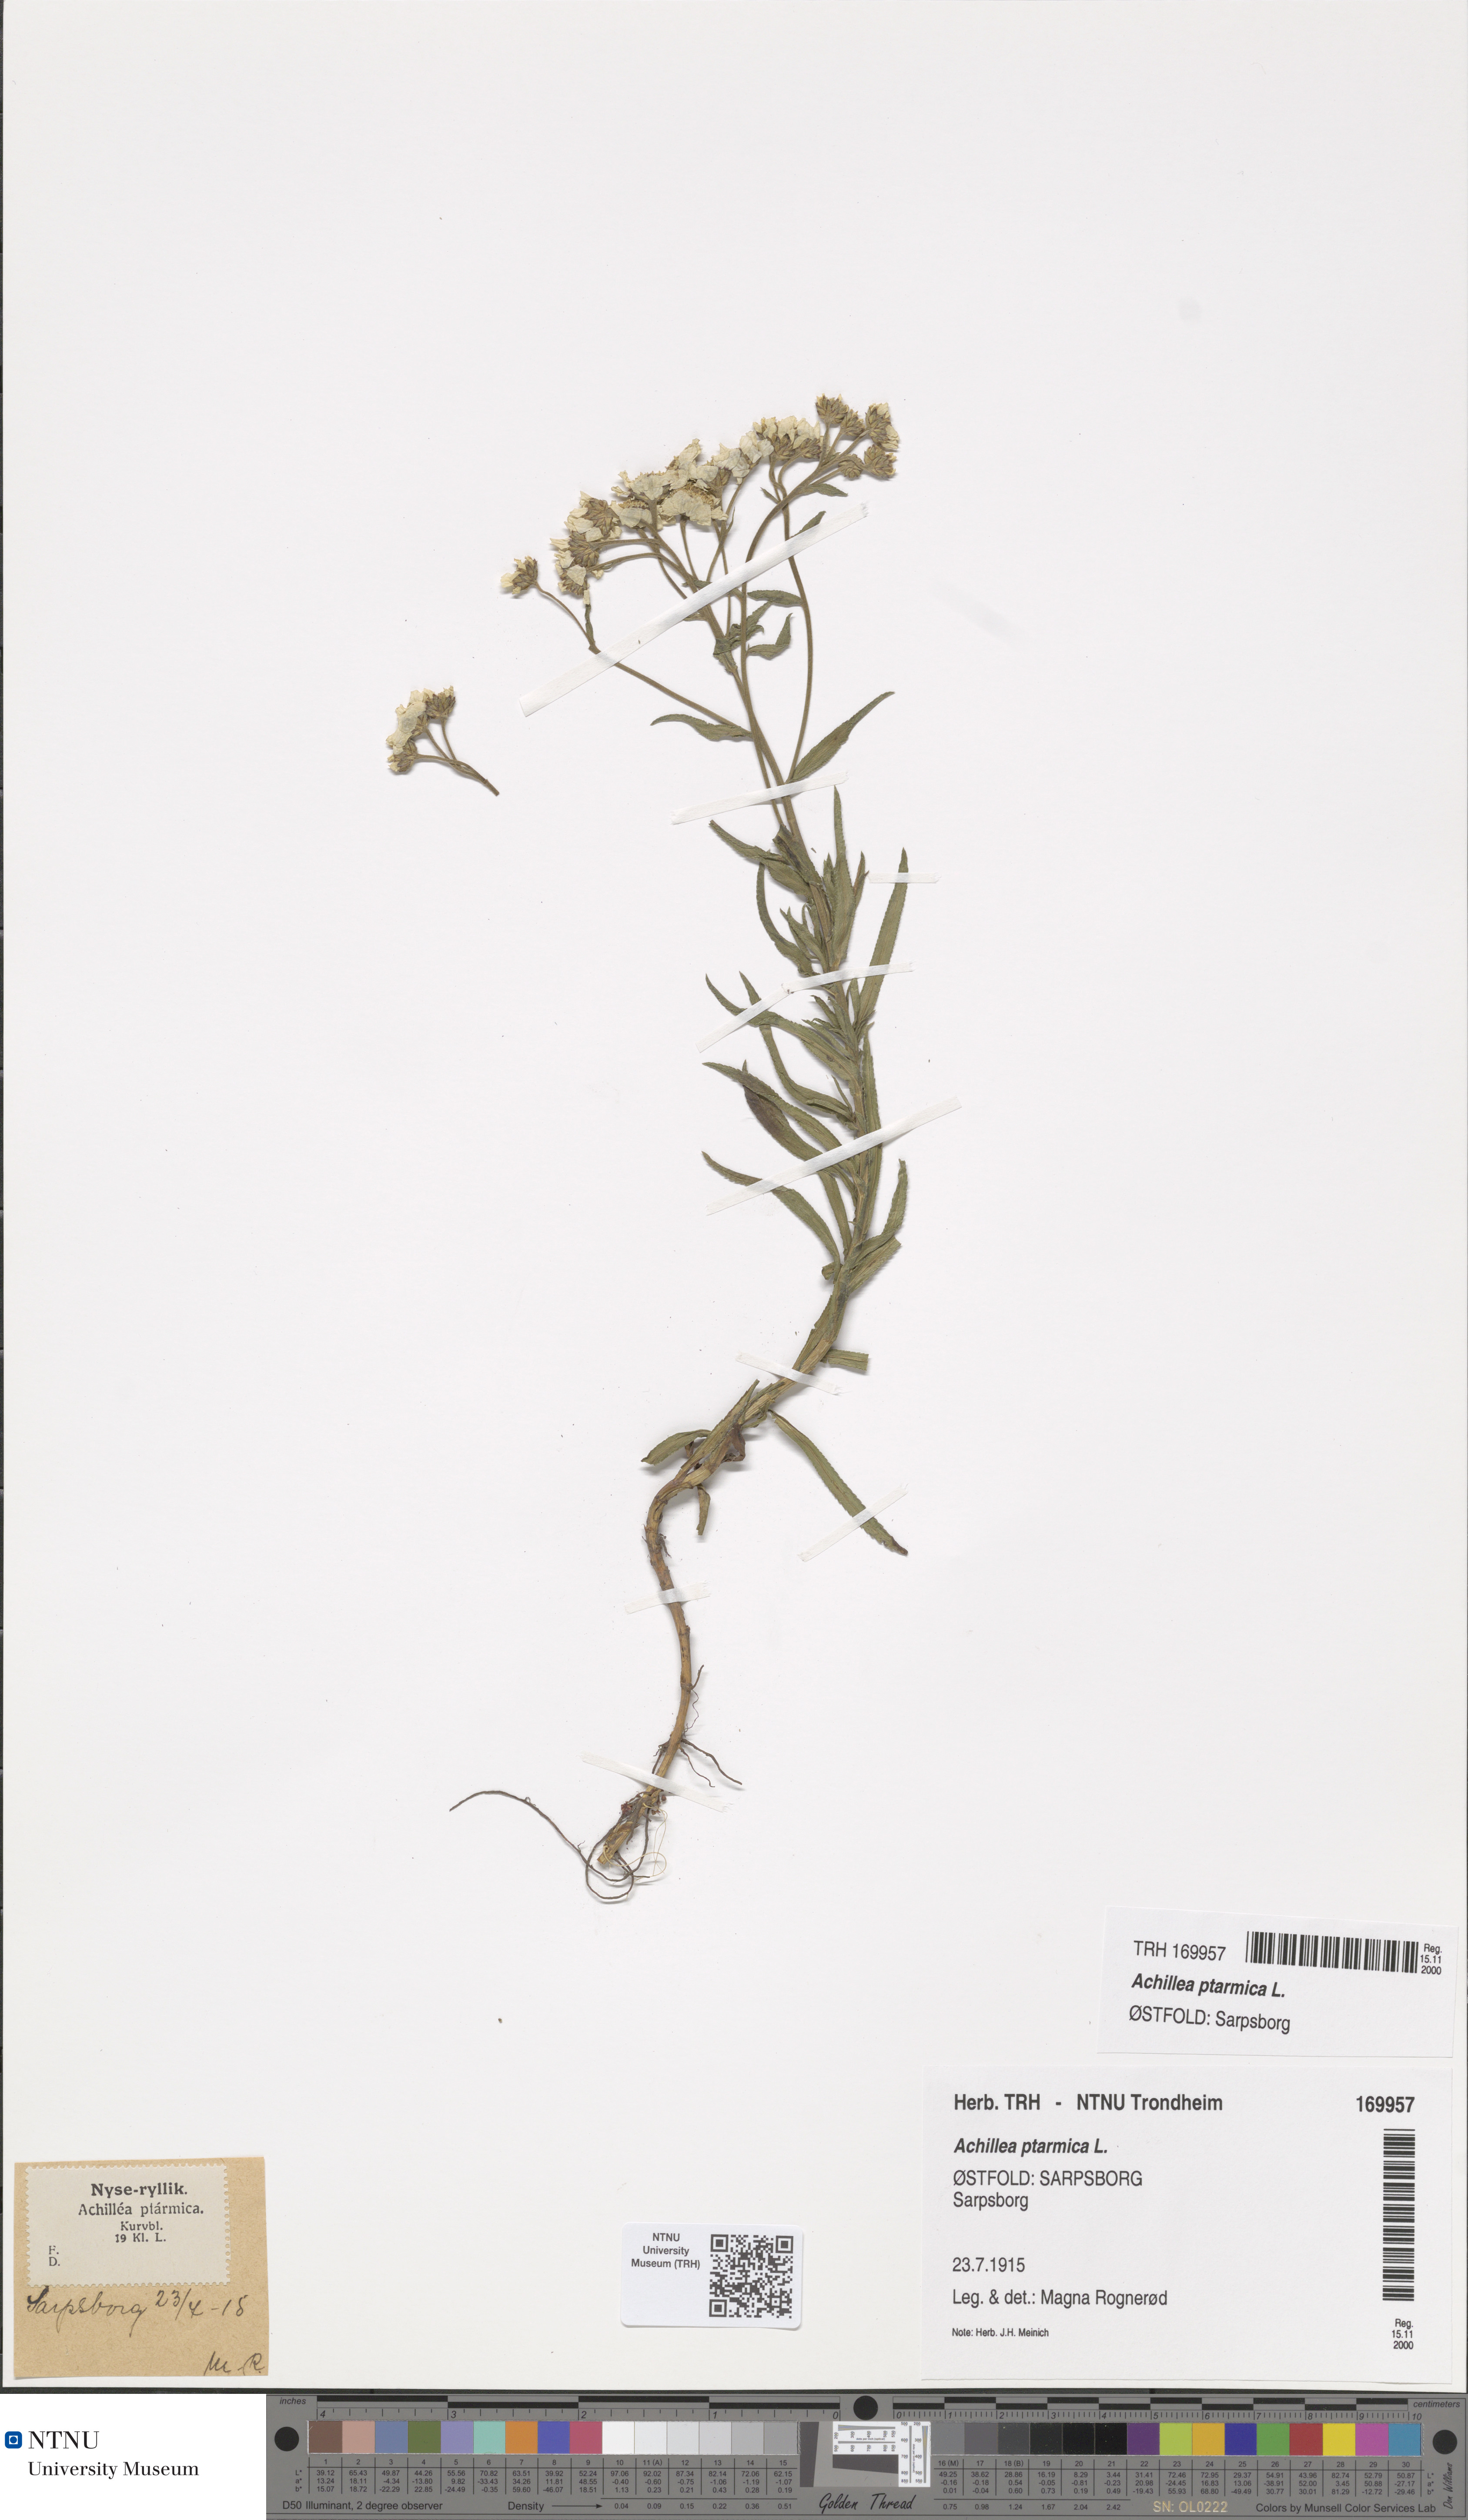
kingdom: Plantae
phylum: Tracheophyta
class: Magnoliopsida
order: Asterales
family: Asteraceae
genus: Achillea
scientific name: Achillea ptarmica
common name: Sneezeweed
